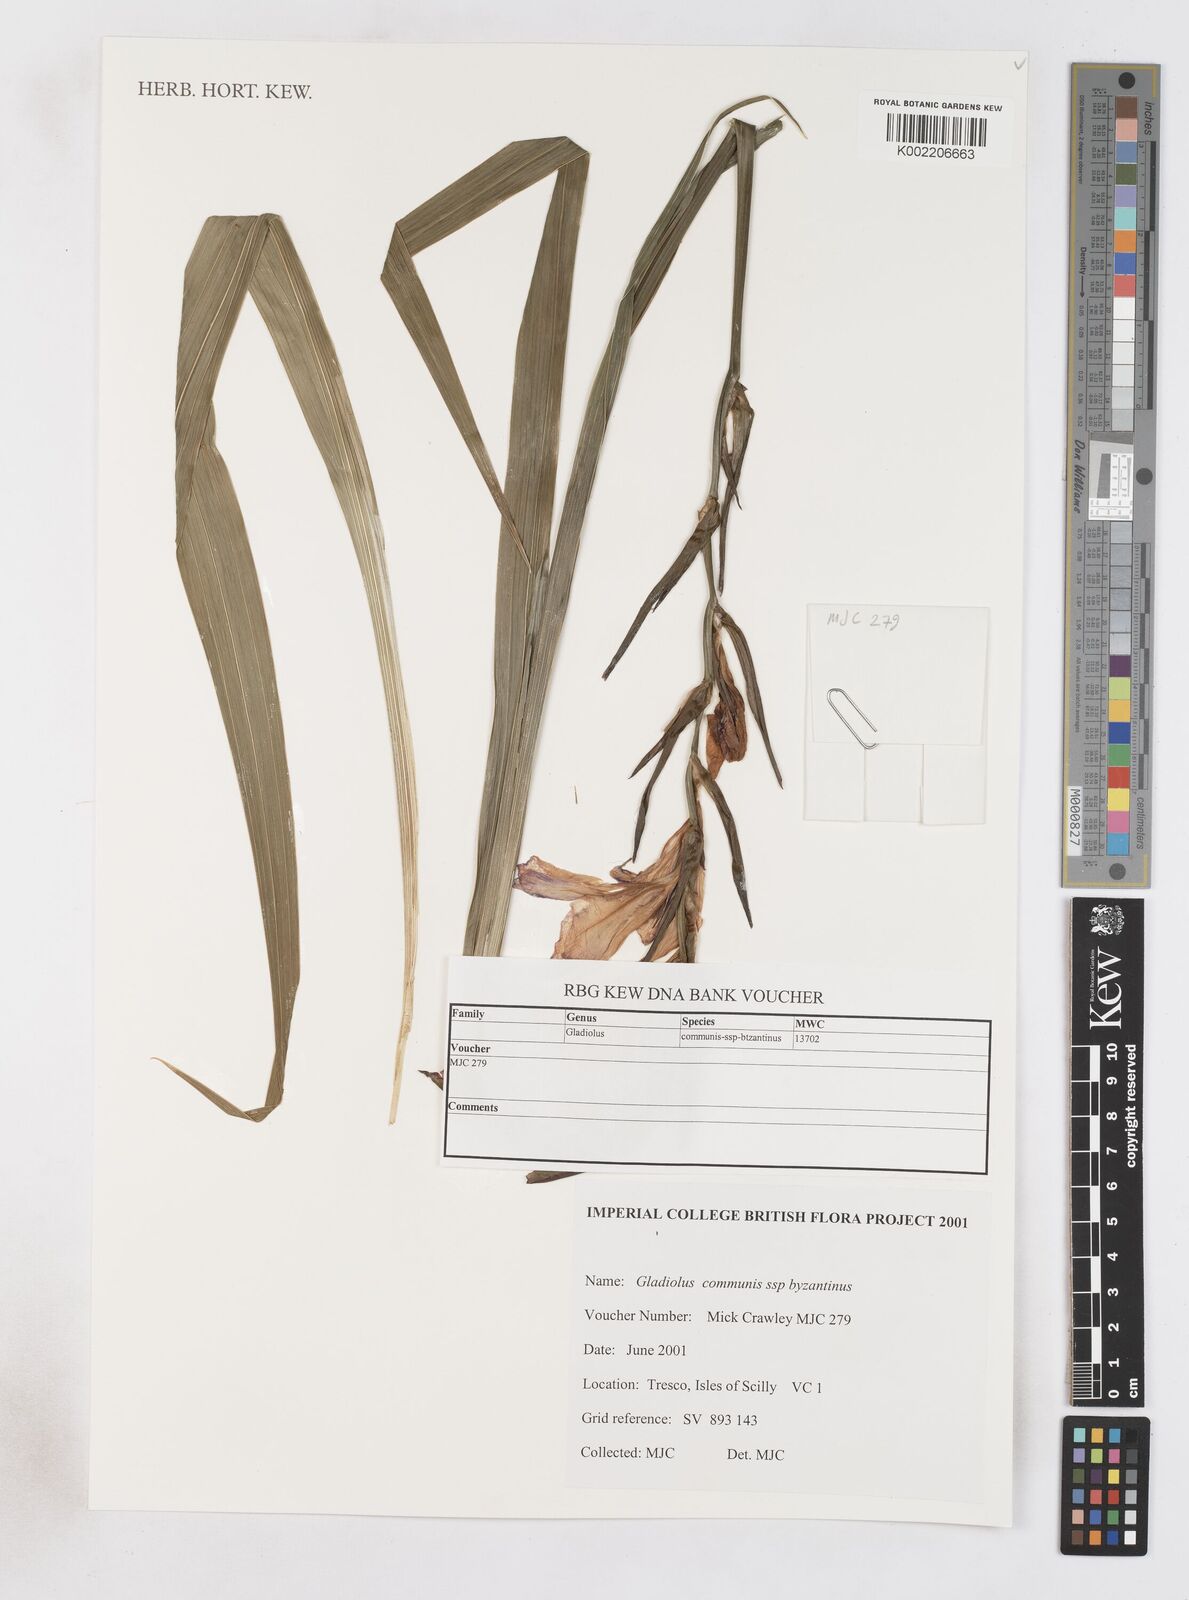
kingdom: Plantae
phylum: Tracheophyta
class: Liliopsida
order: Asparagales
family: Iridaceae
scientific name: Iridaceae
